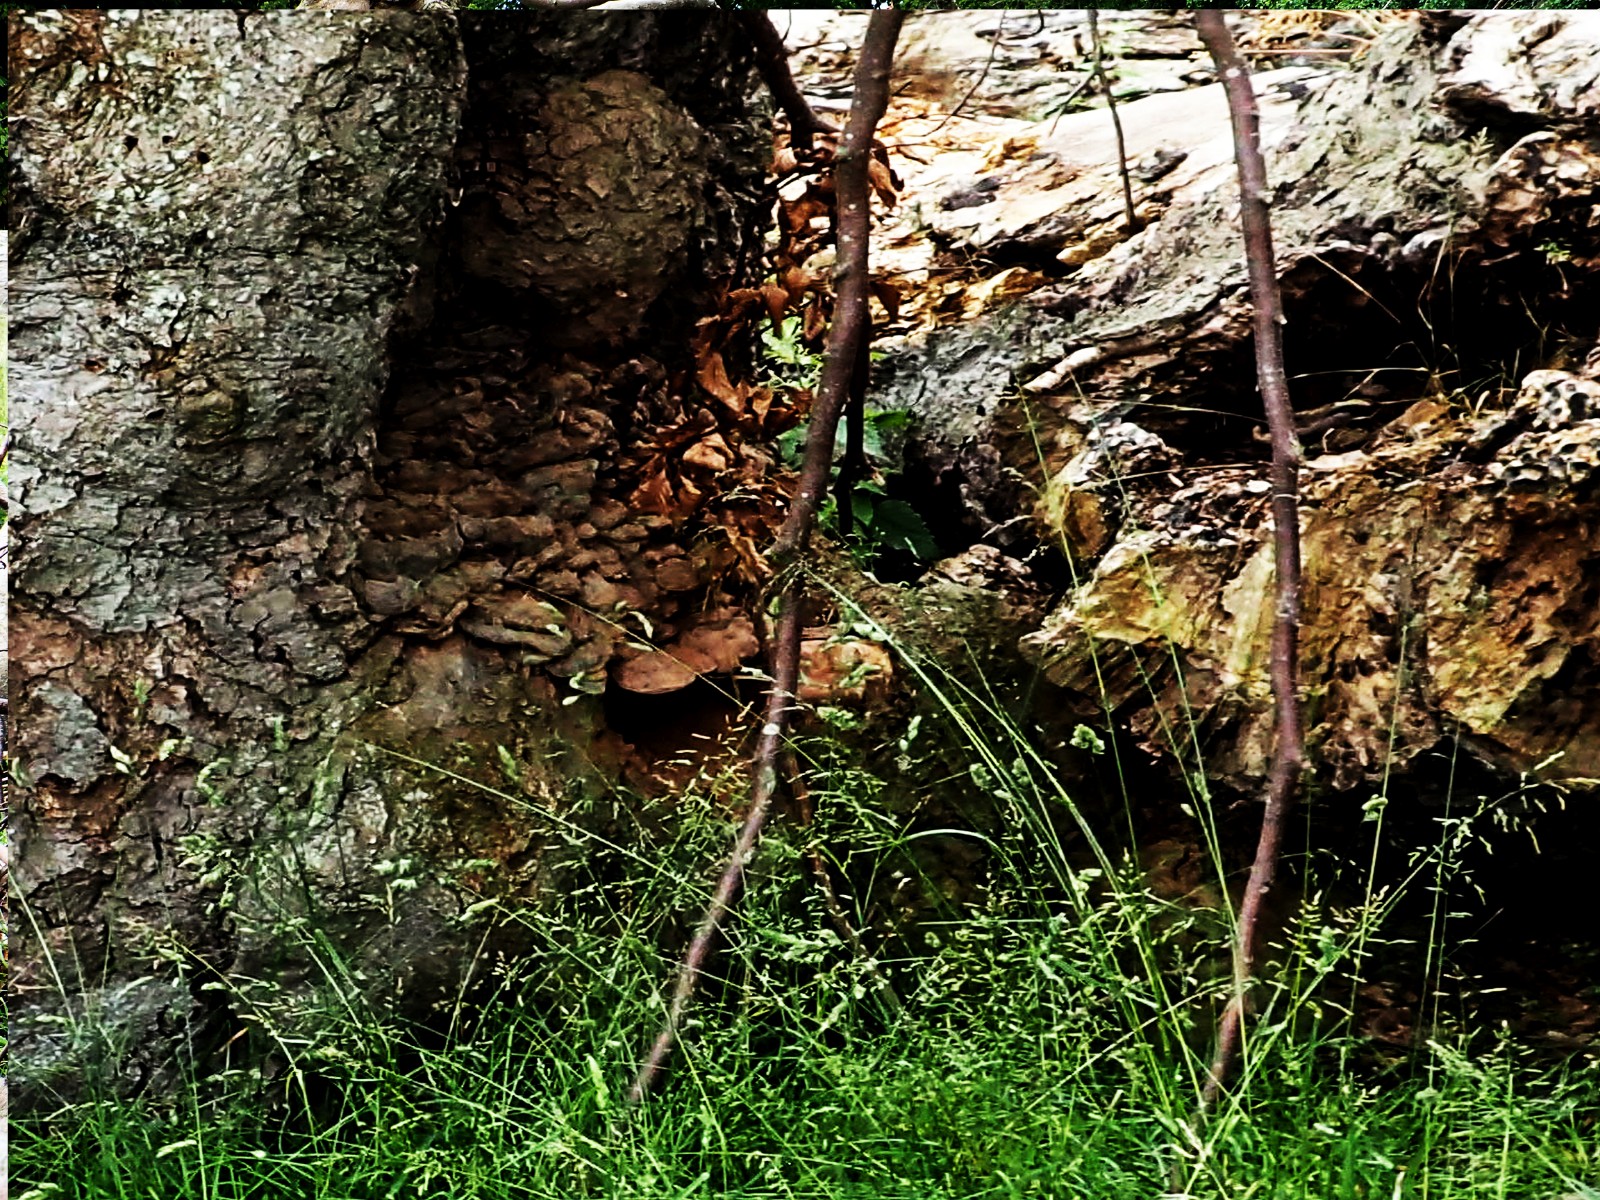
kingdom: Fungi
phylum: Basidiomycota
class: Agaricomycetes
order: Polyporales
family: Polyporaceae
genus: Ganoderma
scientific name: Ganoderma pfeifferi
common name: kobberrød lakporesvamp
